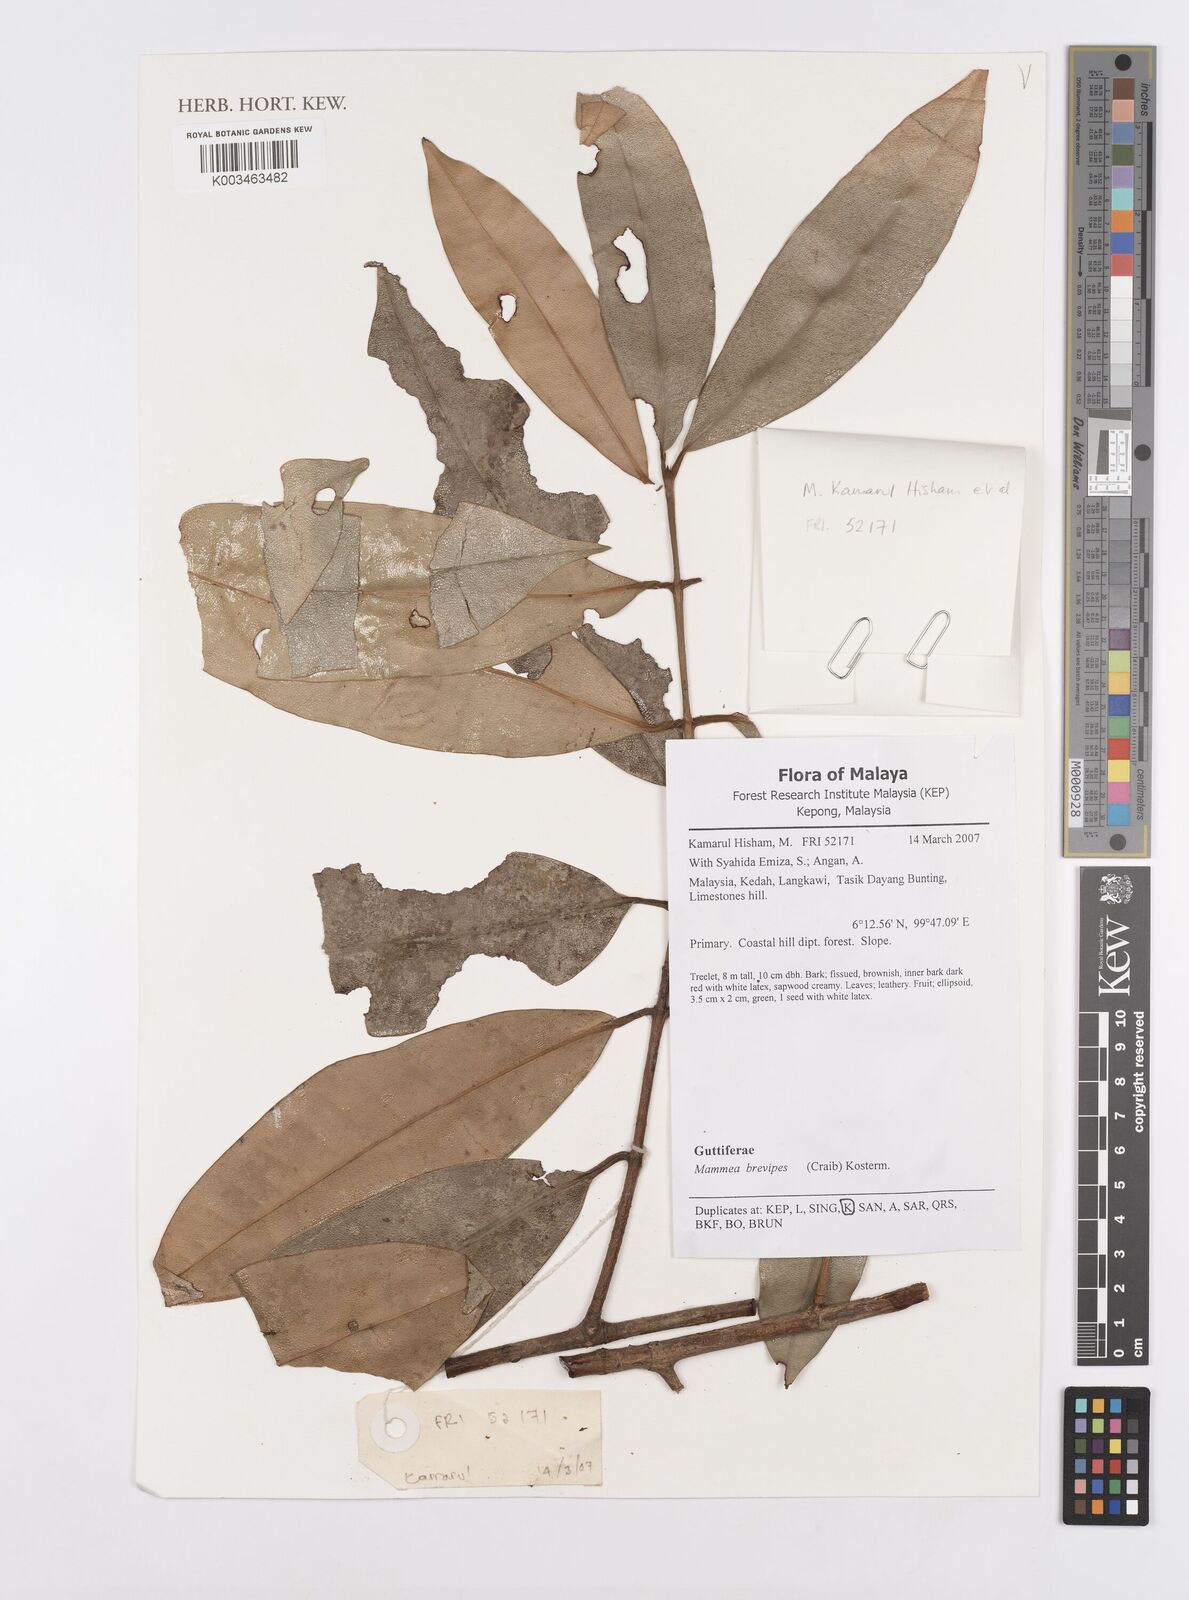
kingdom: Plantae
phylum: Tracheophyta
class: Magnoliopsida
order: Malpighiales
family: Calophyllaceae
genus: Mammea
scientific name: Mammea harmandii
